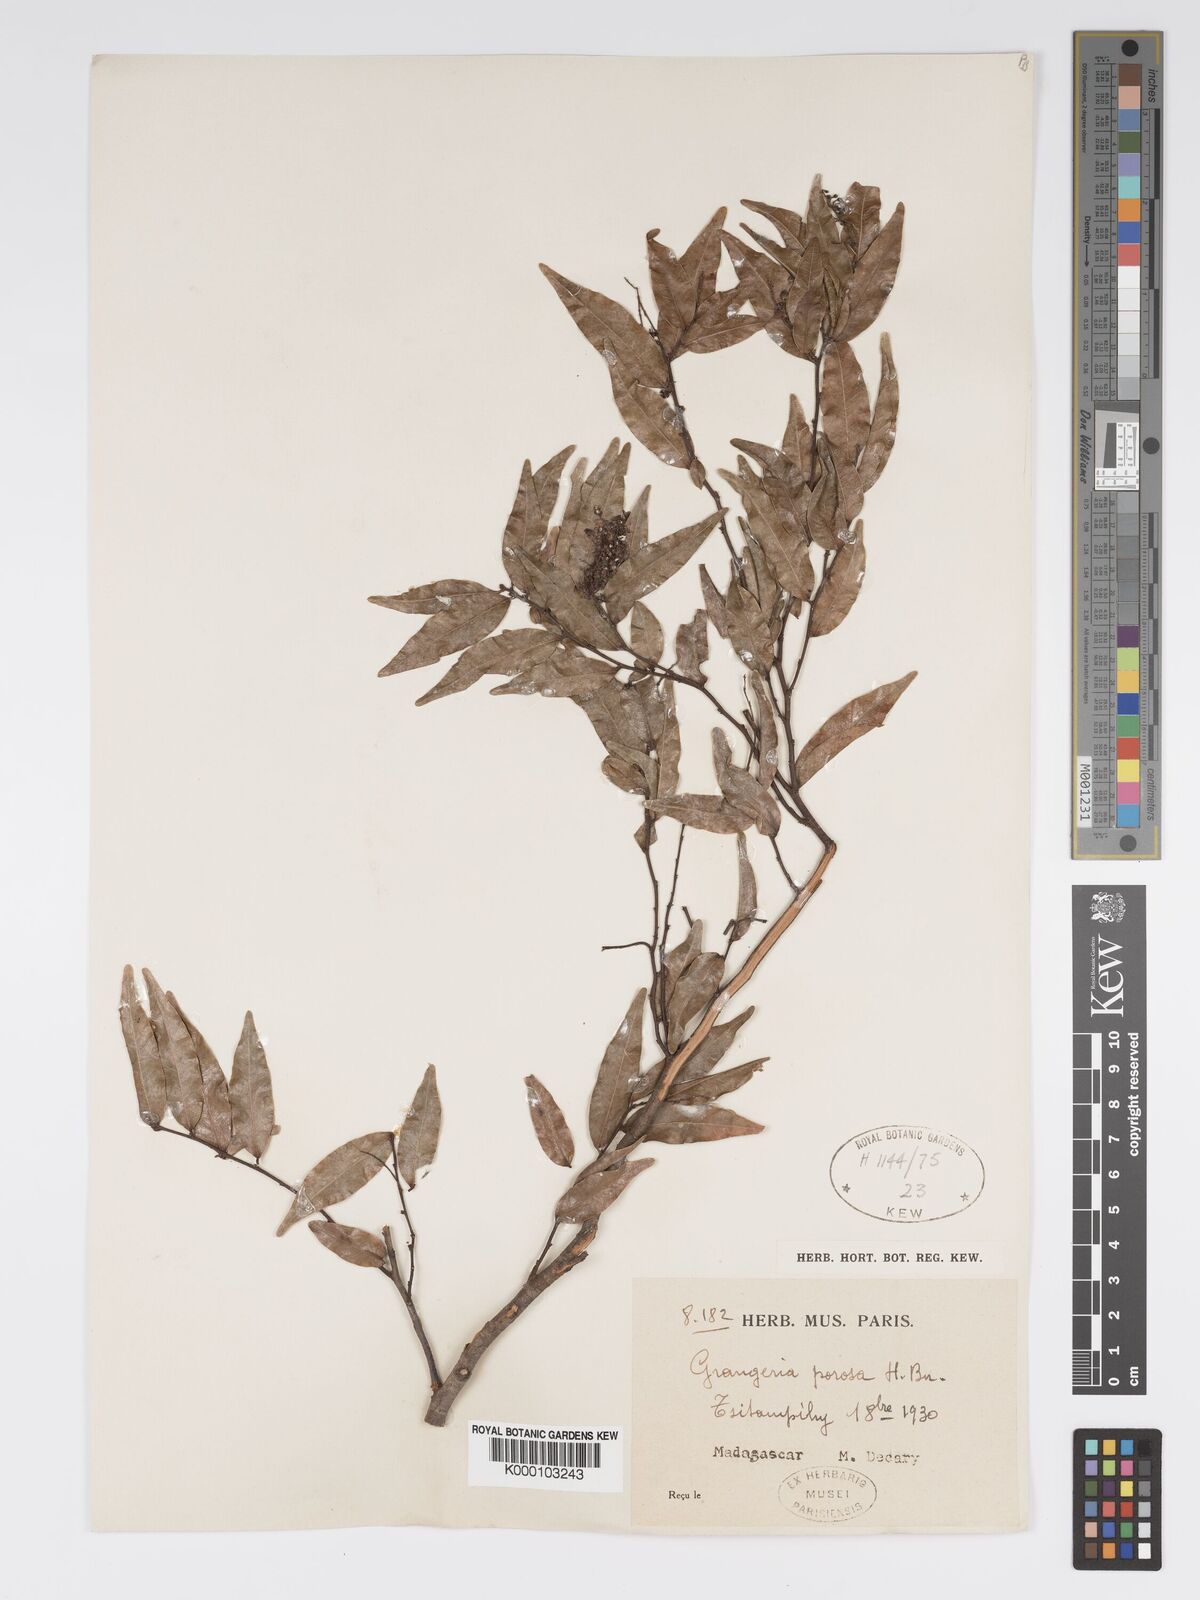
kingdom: Plantae
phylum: Tracheophyta
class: Magnoliopsida
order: Malpighiales
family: Chrysobalanaceae
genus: Grangeria
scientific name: Grangeria porosa
